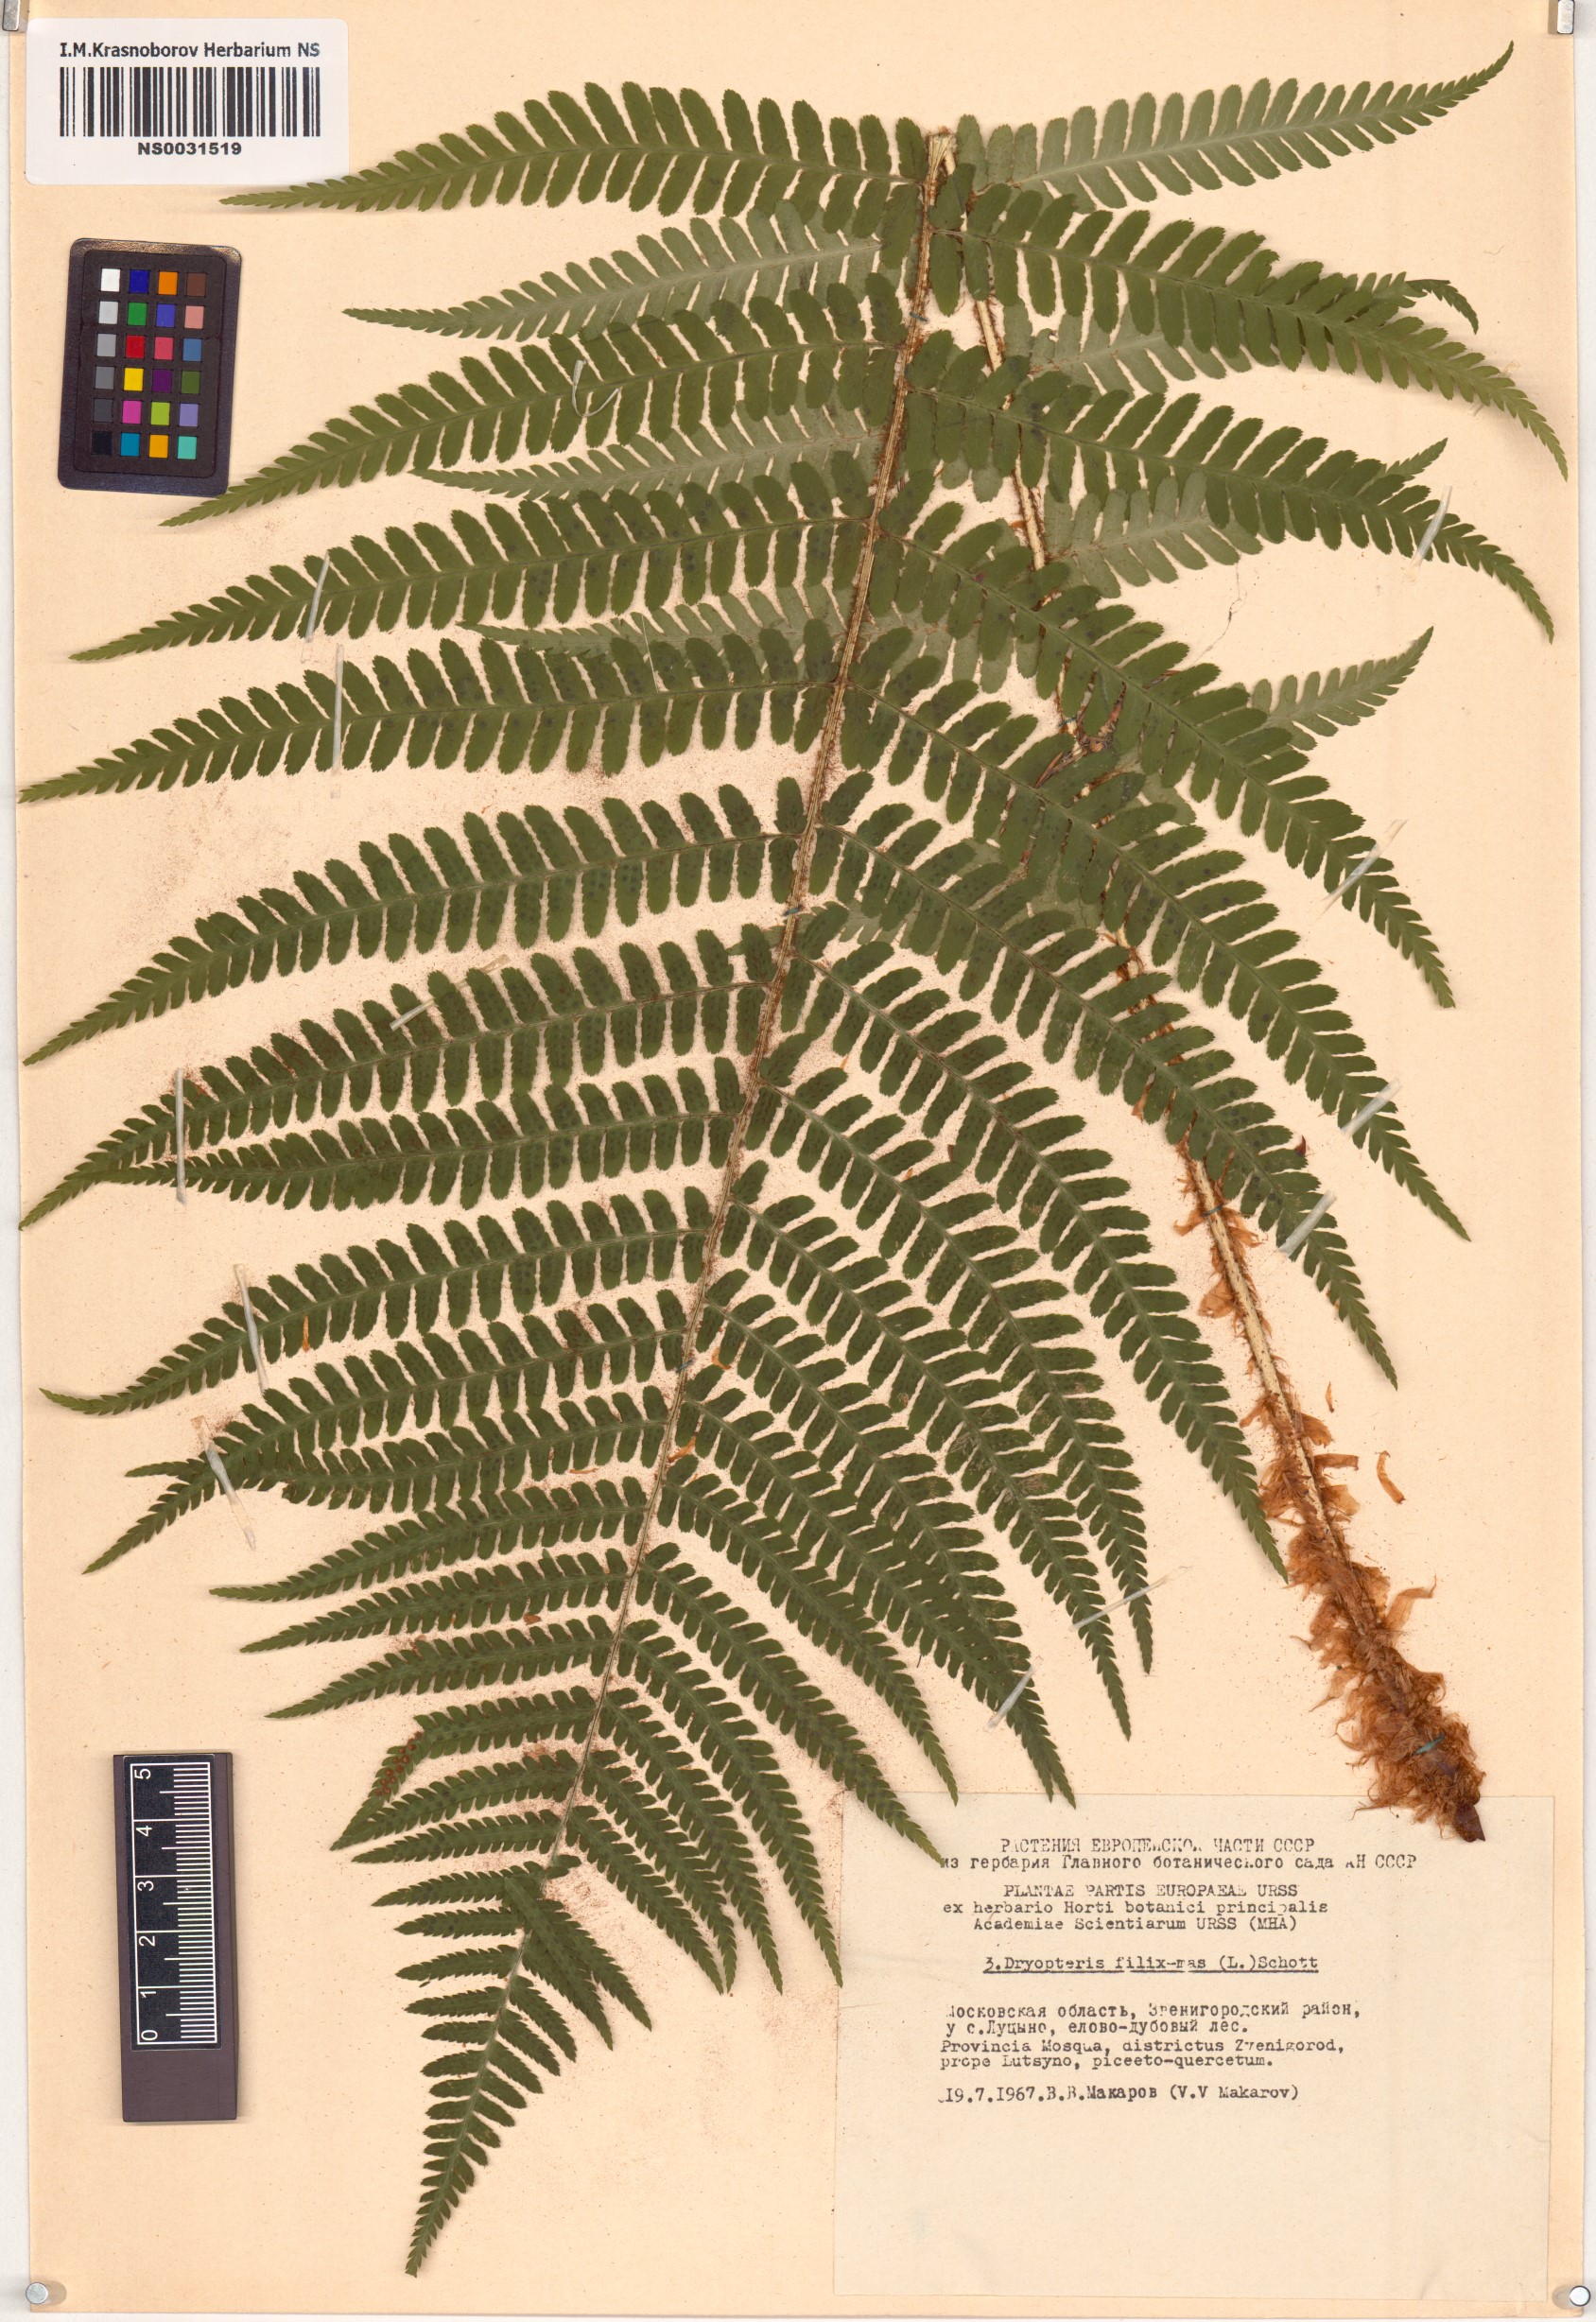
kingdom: Plantae
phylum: Tracheophyta
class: Polypodiopsida
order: Polypodiales
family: Dryopteridaceae
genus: Dryopteris
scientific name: Dryopteris filix-mas
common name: Male fern
